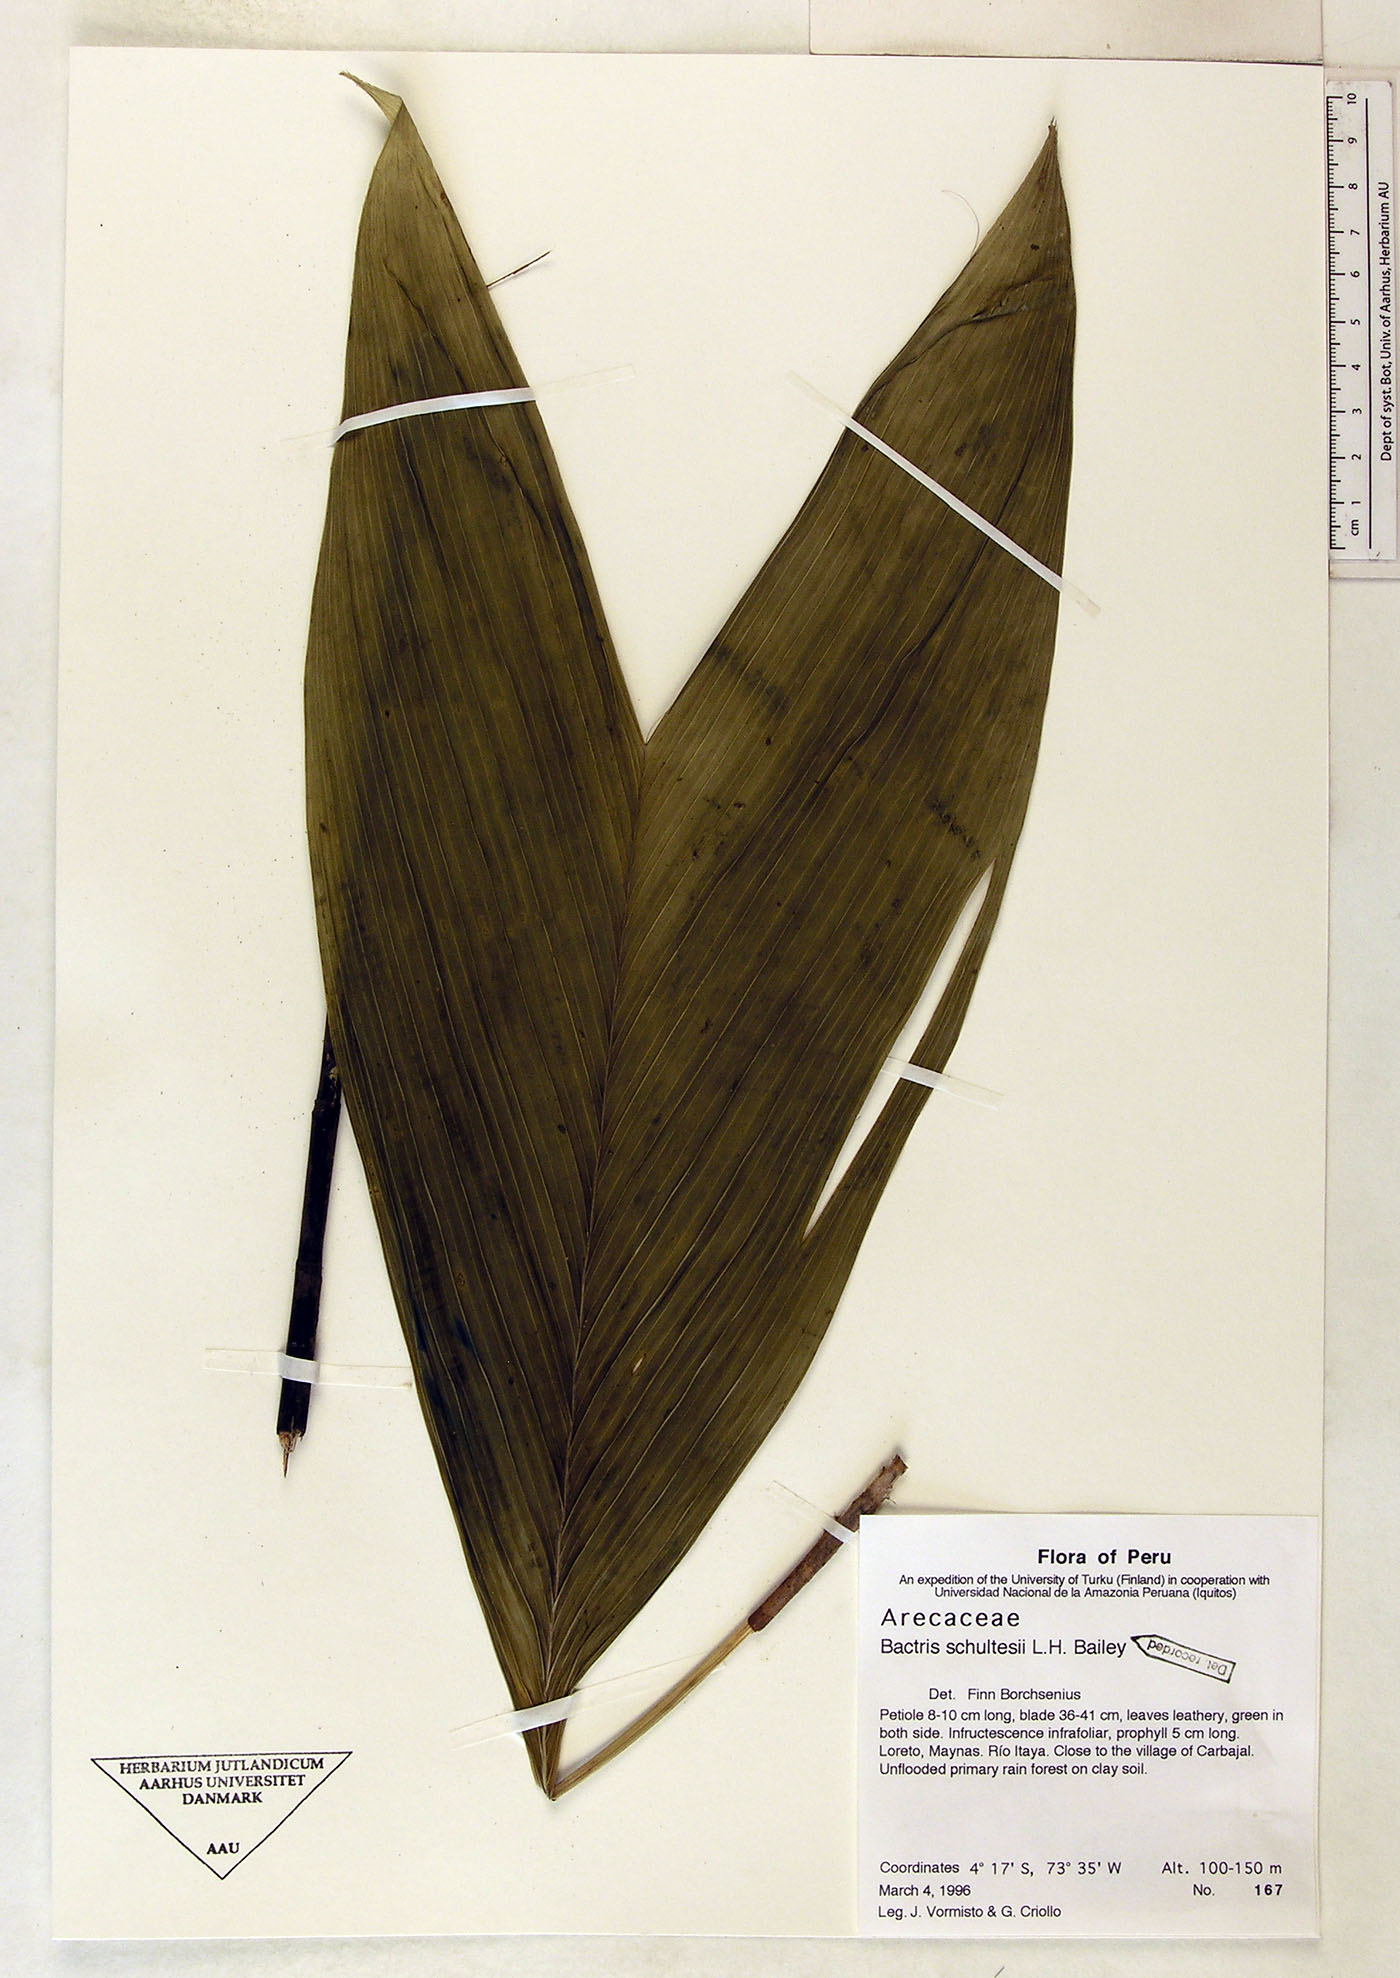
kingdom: Plantae
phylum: Tracheophyta
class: Liliopsida
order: Arecales
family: Arecaceae
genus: Bactris
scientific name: Bactris schultesii
